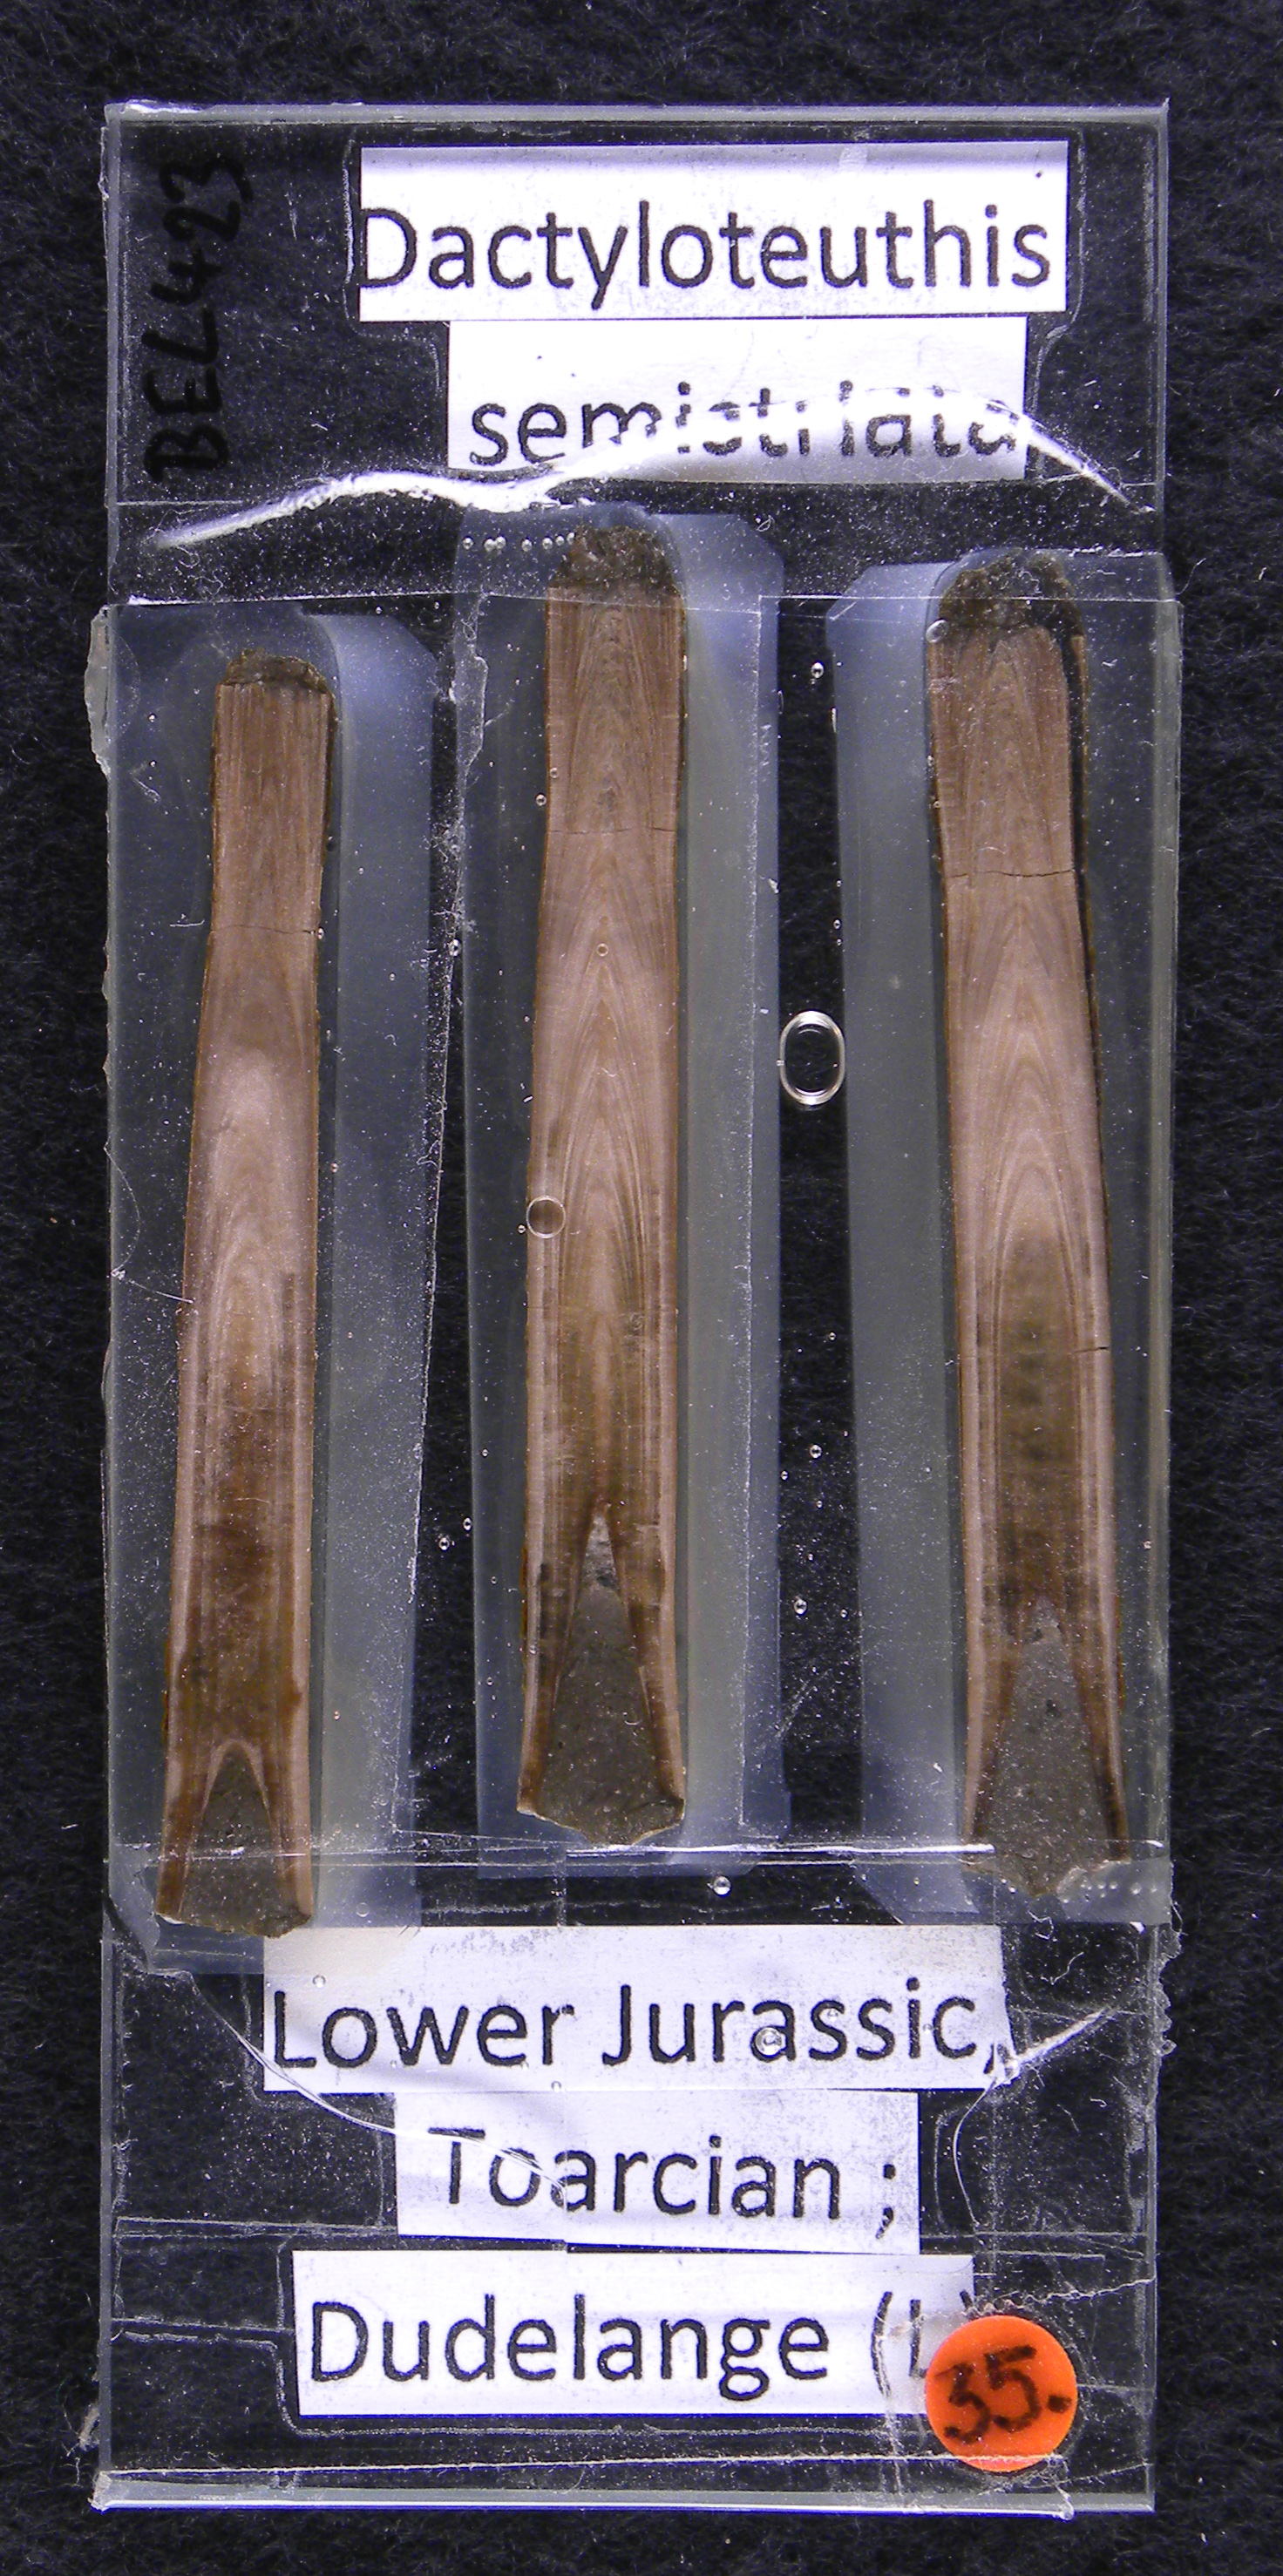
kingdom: Animalia
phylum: Mollusca
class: Cephalopoda
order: Belemnitida
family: Megateuthididae
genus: Acrocoelites
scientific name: Acrocoelites riegrafi
